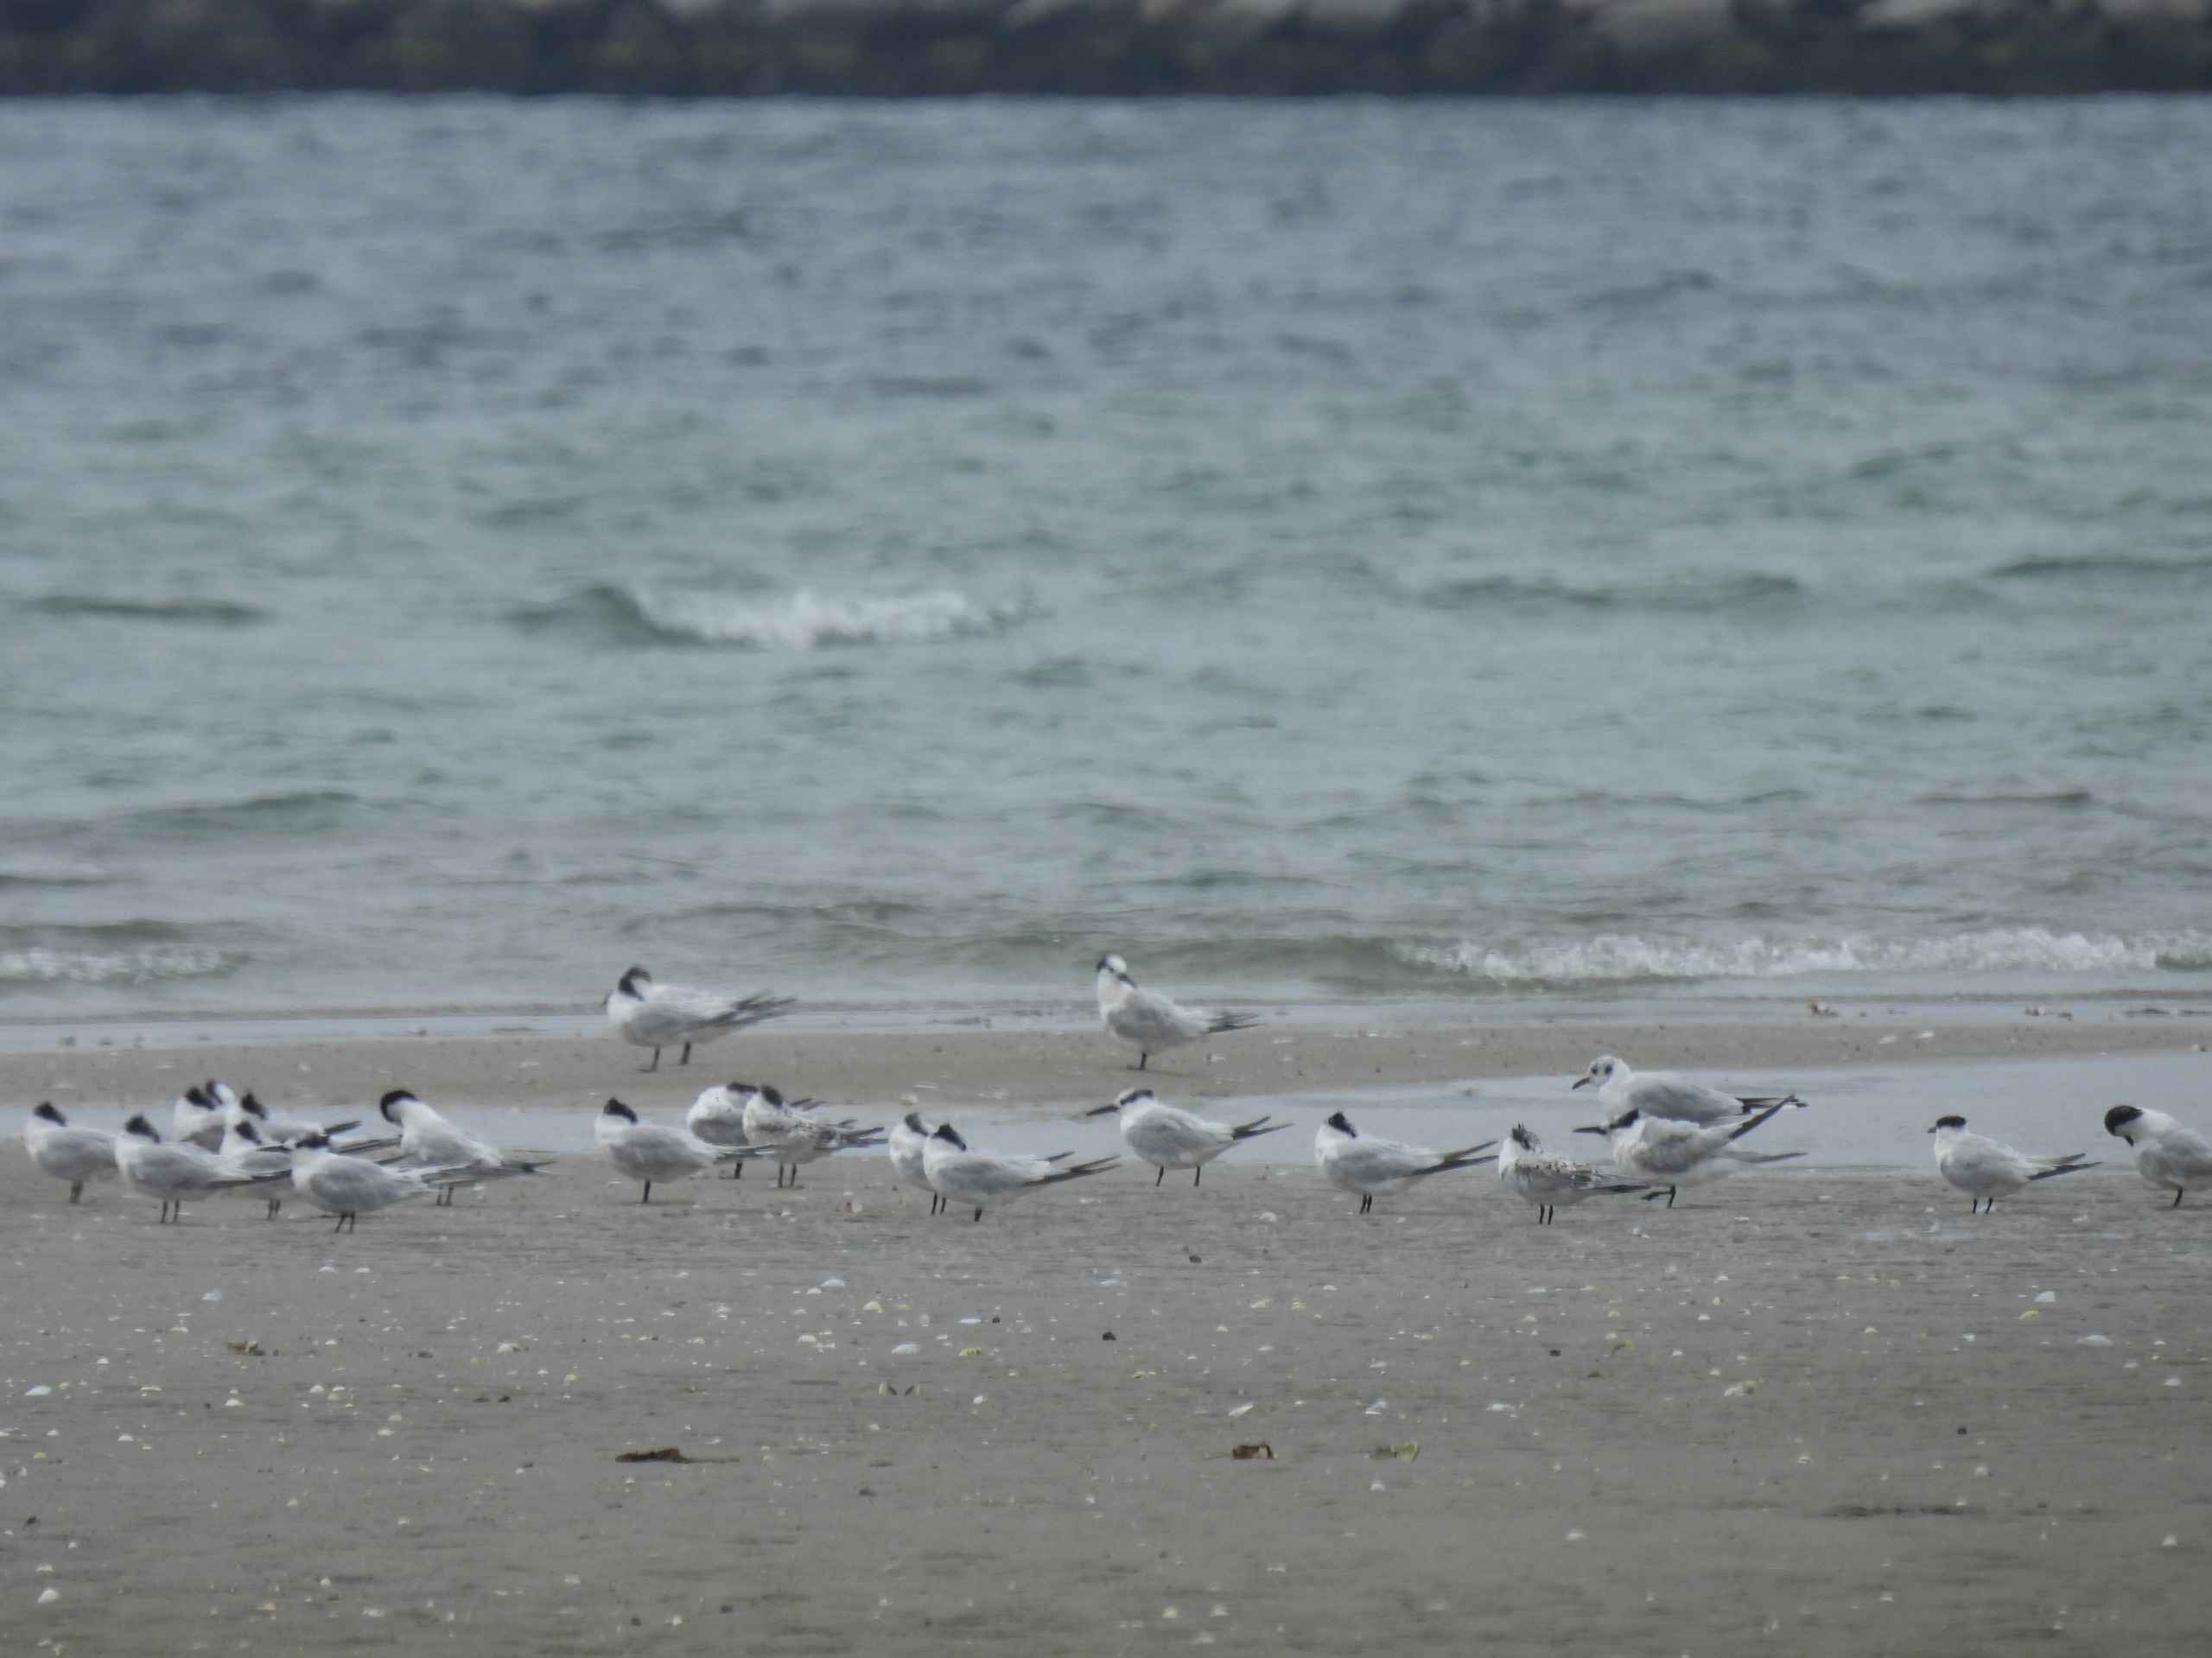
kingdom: Animalia
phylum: Chordata
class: Aves
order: Charadriiformes
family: Laridae
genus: Thalasseus
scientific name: Thalasseus sandvicensis
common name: Splitterne
